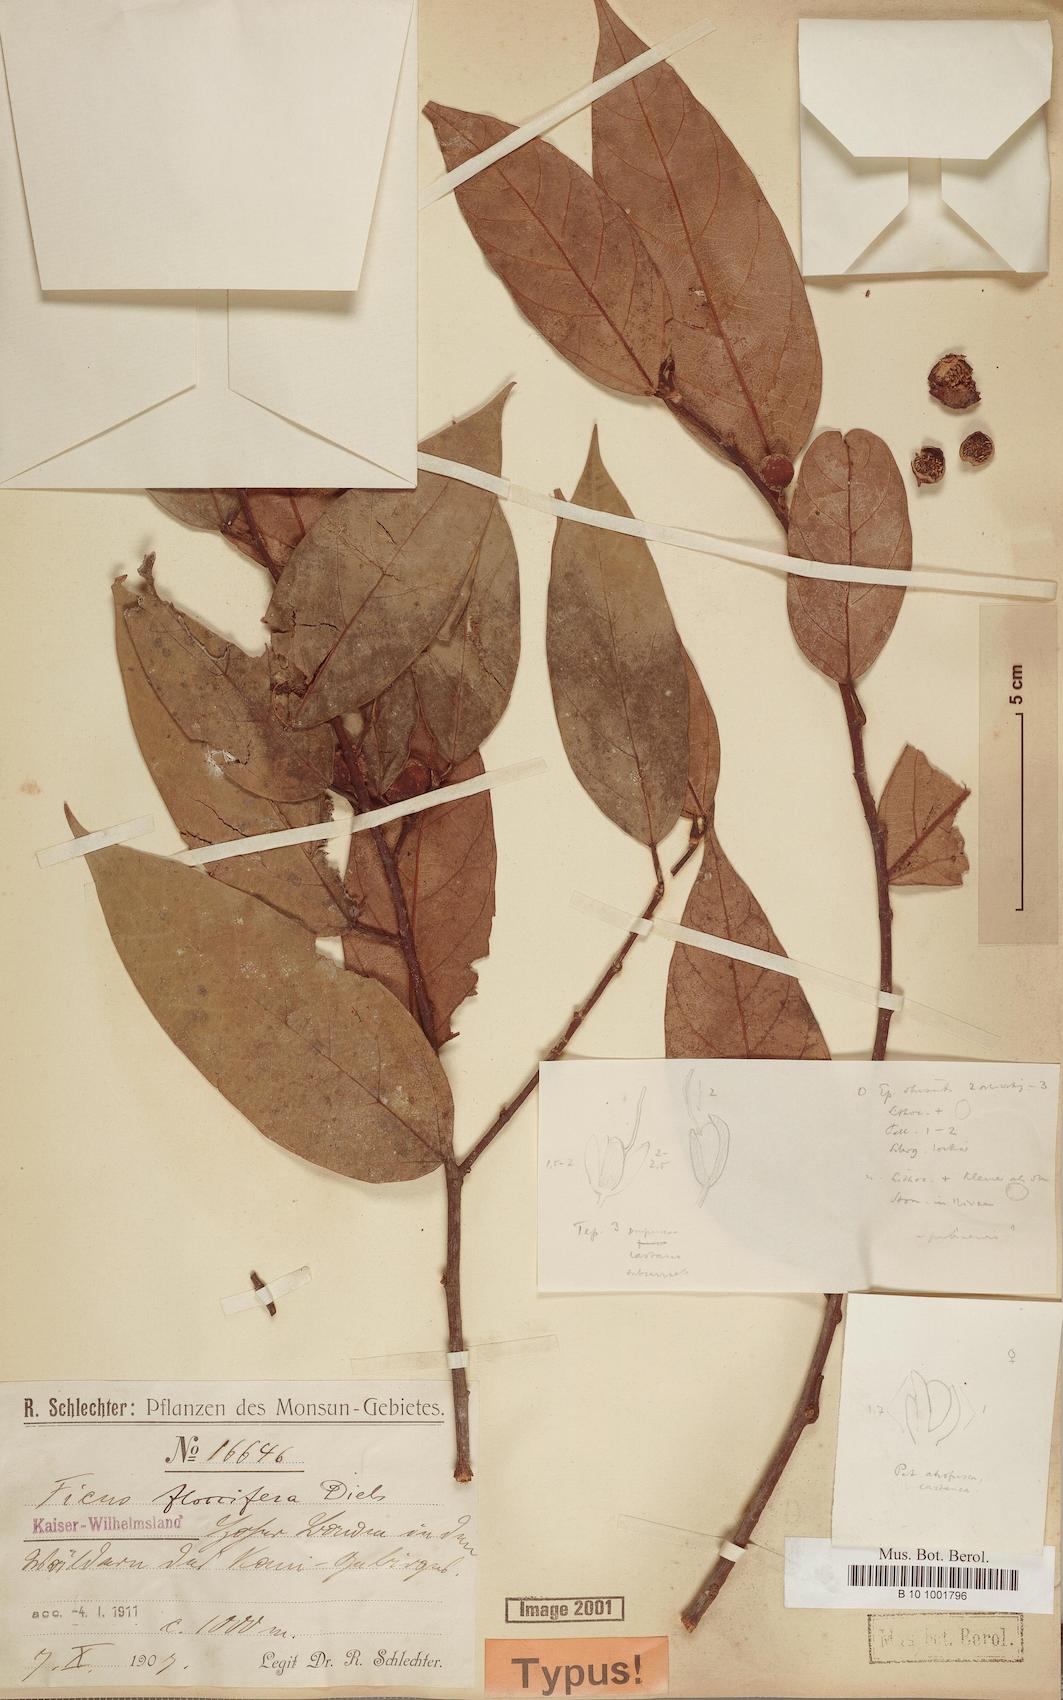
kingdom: Plantae
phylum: Tracheophyta
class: Magnoliopsida
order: Rosales
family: Moraceae
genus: Ficus
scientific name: Ficus floccifera
